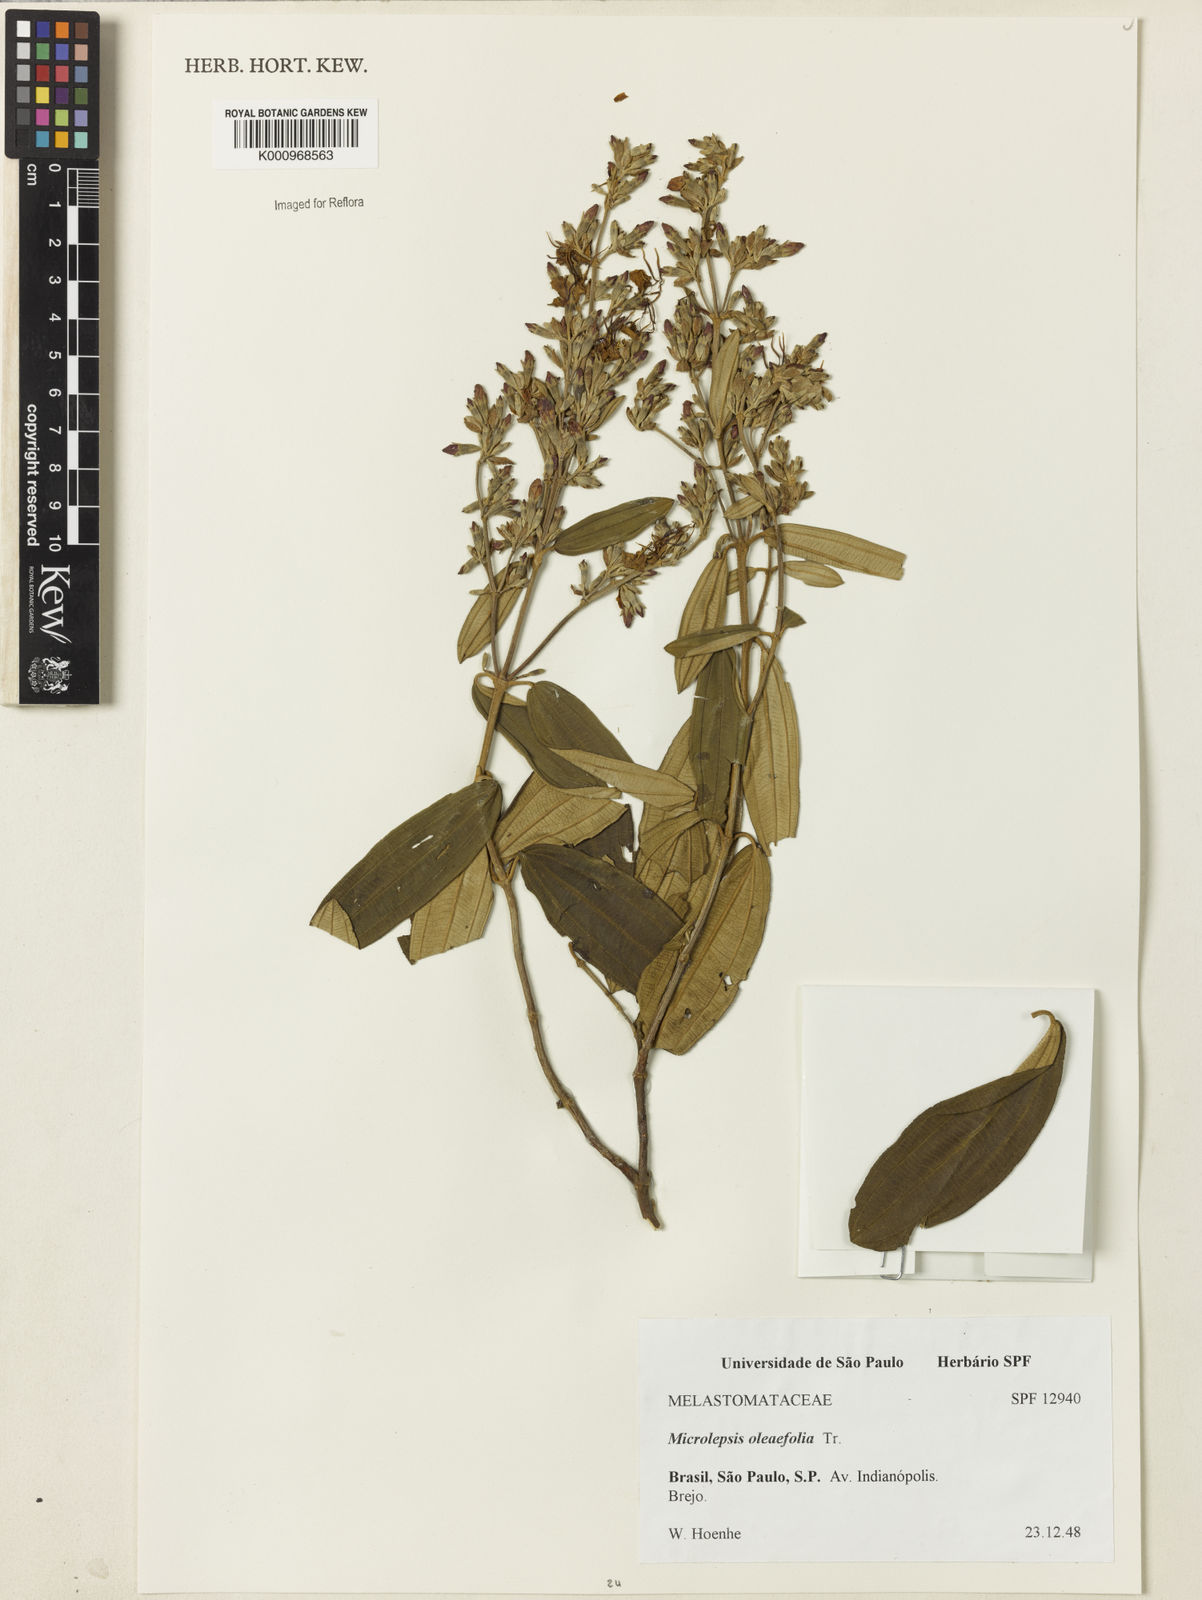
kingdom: Plantae
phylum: Tracheophyta
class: Magnoliopsida
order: Myrtales
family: Melastomataceae
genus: Pleroma
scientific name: Pleroma oleifolia
